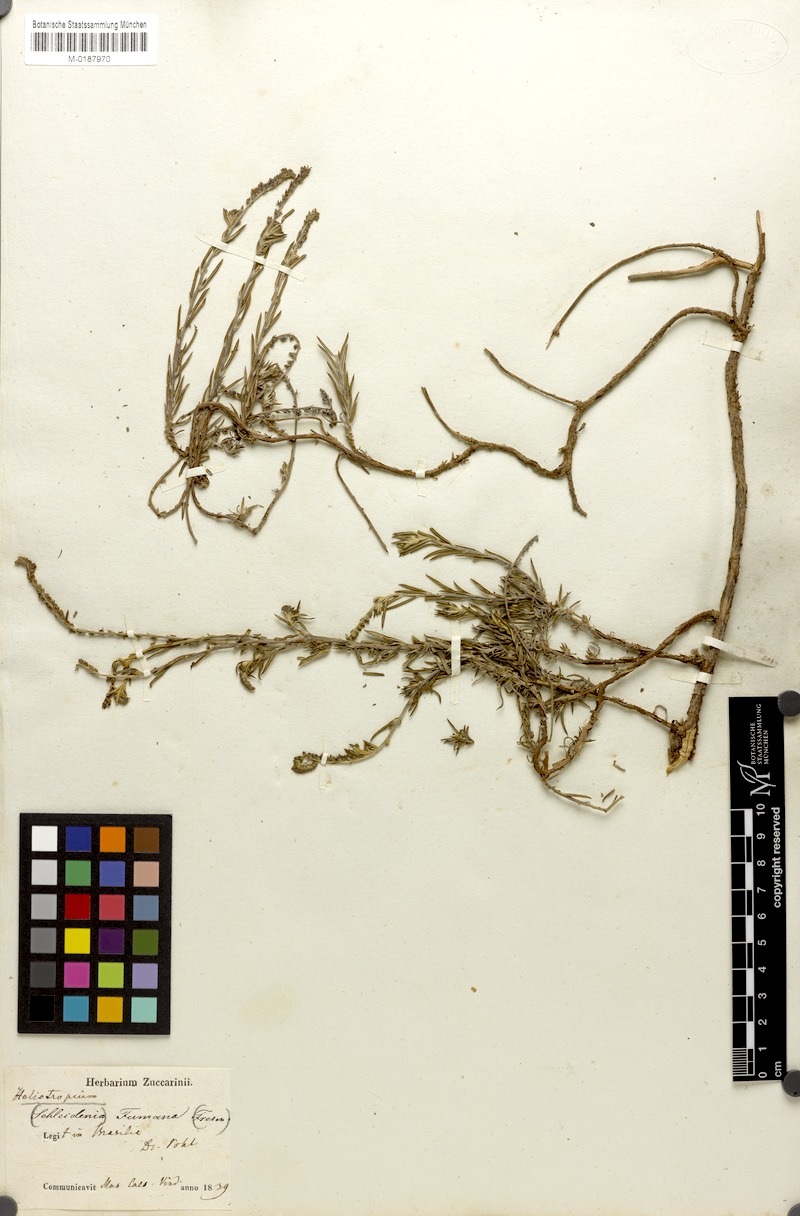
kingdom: Plantae
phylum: Tracheophyta
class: Magnoliopsida
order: Boraginales
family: Heliotropiaceae
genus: Euploca
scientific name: Euploca humilis
